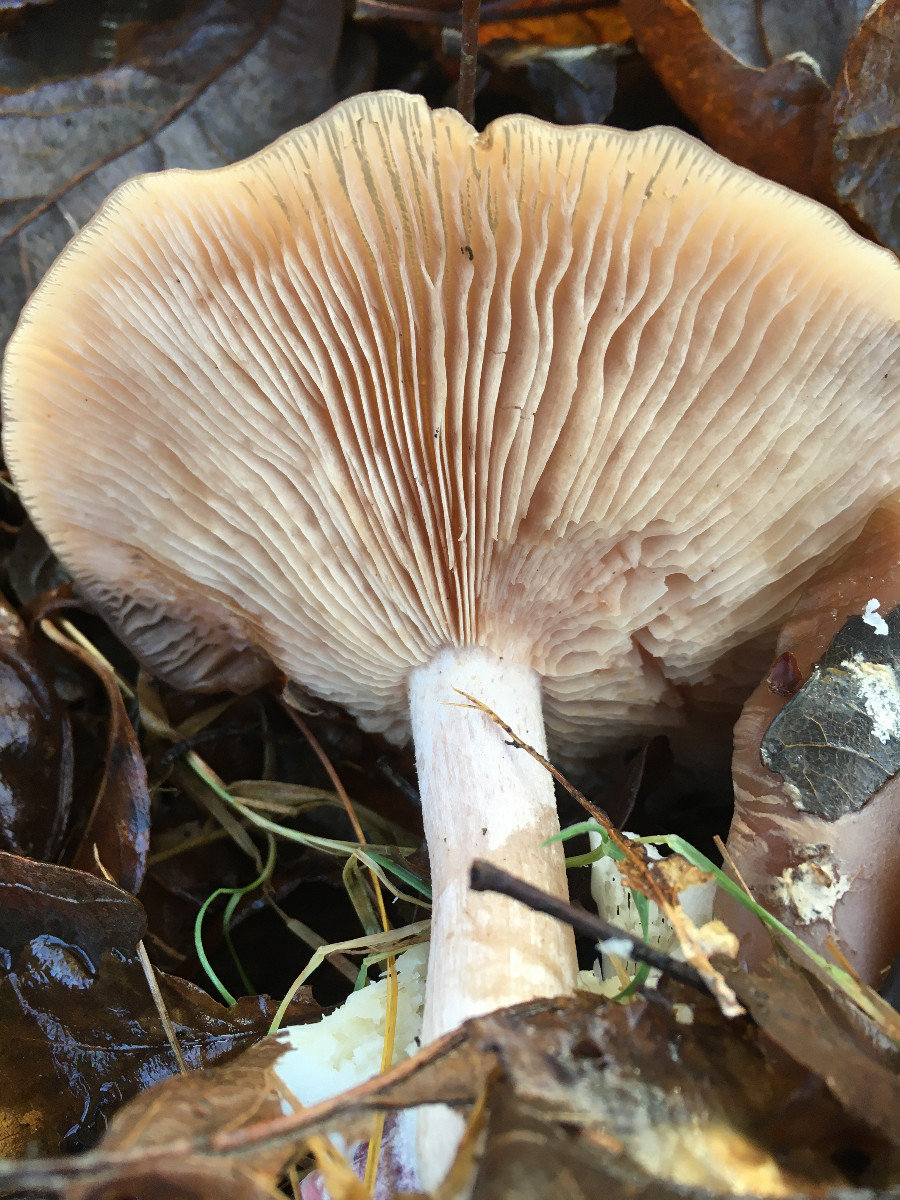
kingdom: Fungi
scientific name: Fungi
